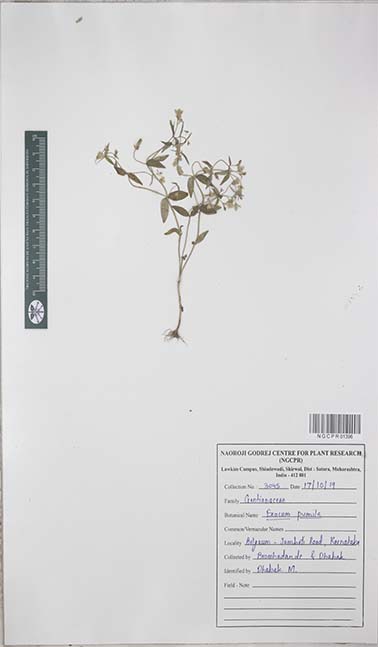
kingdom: Plantae
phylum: Tracheophyta
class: Magnoliopsida
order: Gentianales
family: Gentianaceae
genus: Exacum
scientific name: Exacum pumilum
